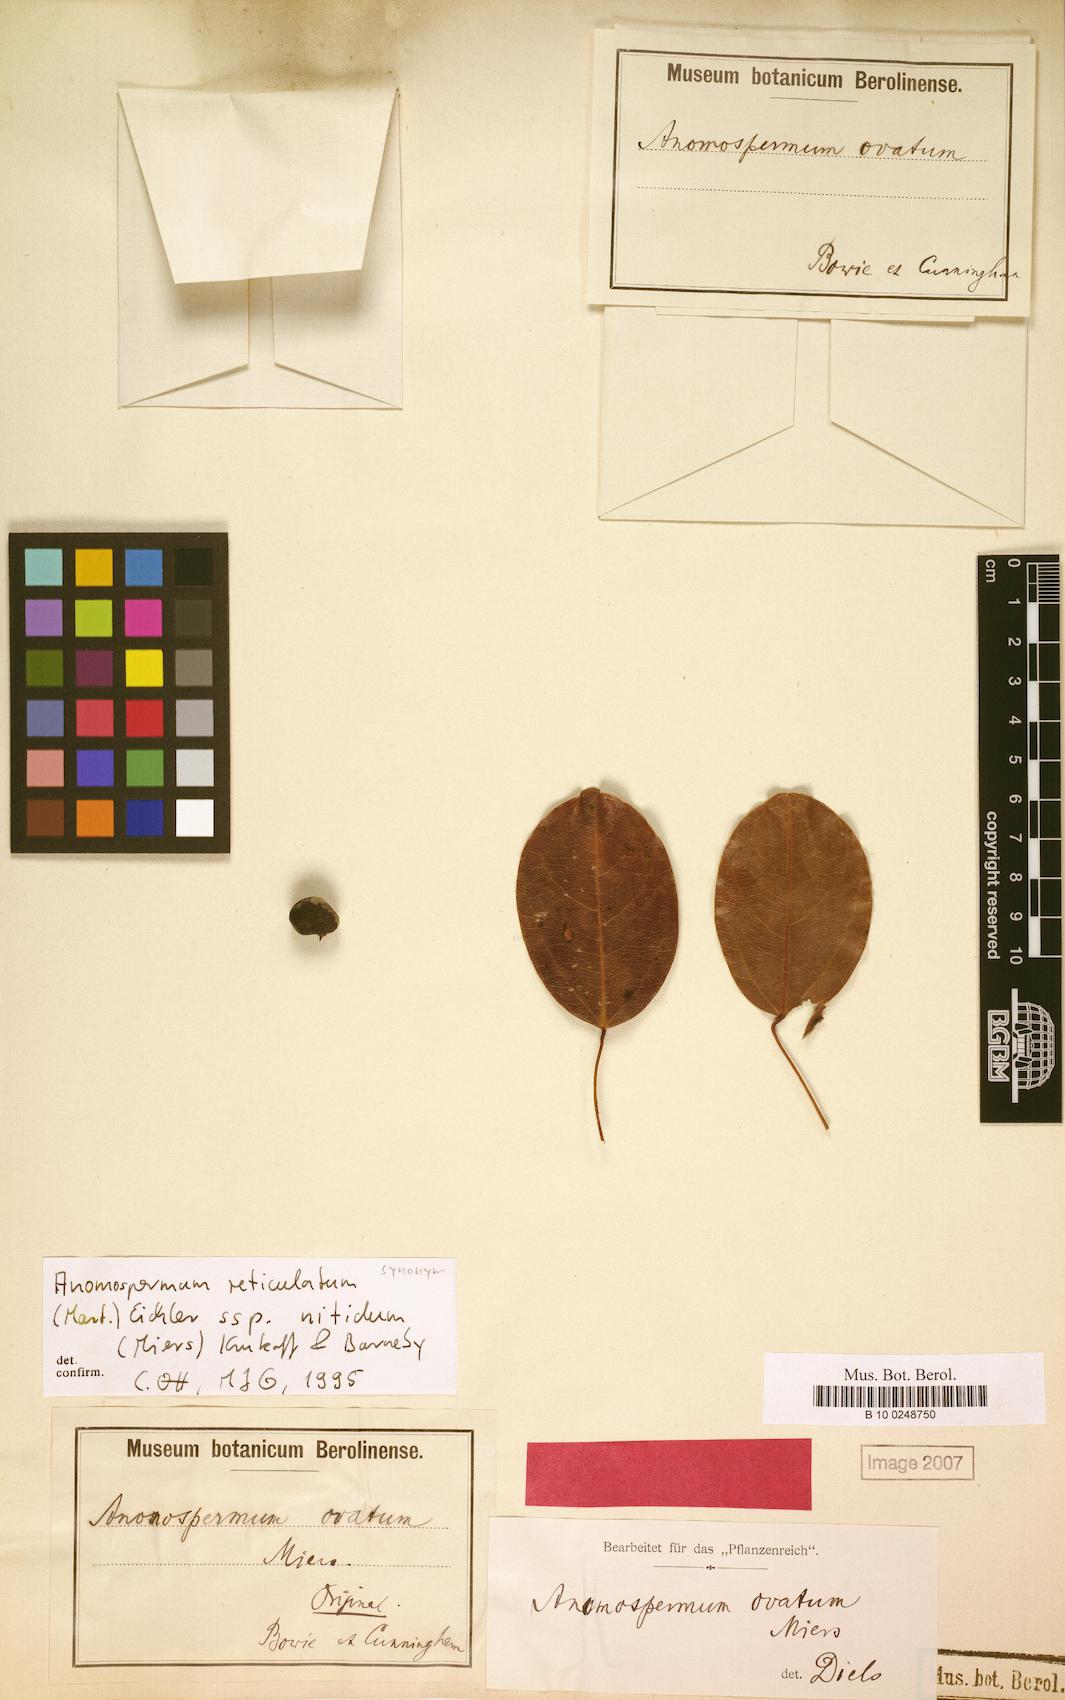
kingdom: Plantae
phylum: Tracheophyta
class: Magnoliopsida
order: Ranunculales
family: Menispermaceae
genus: Anomospermum
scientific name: Anomospermum reticulatum
